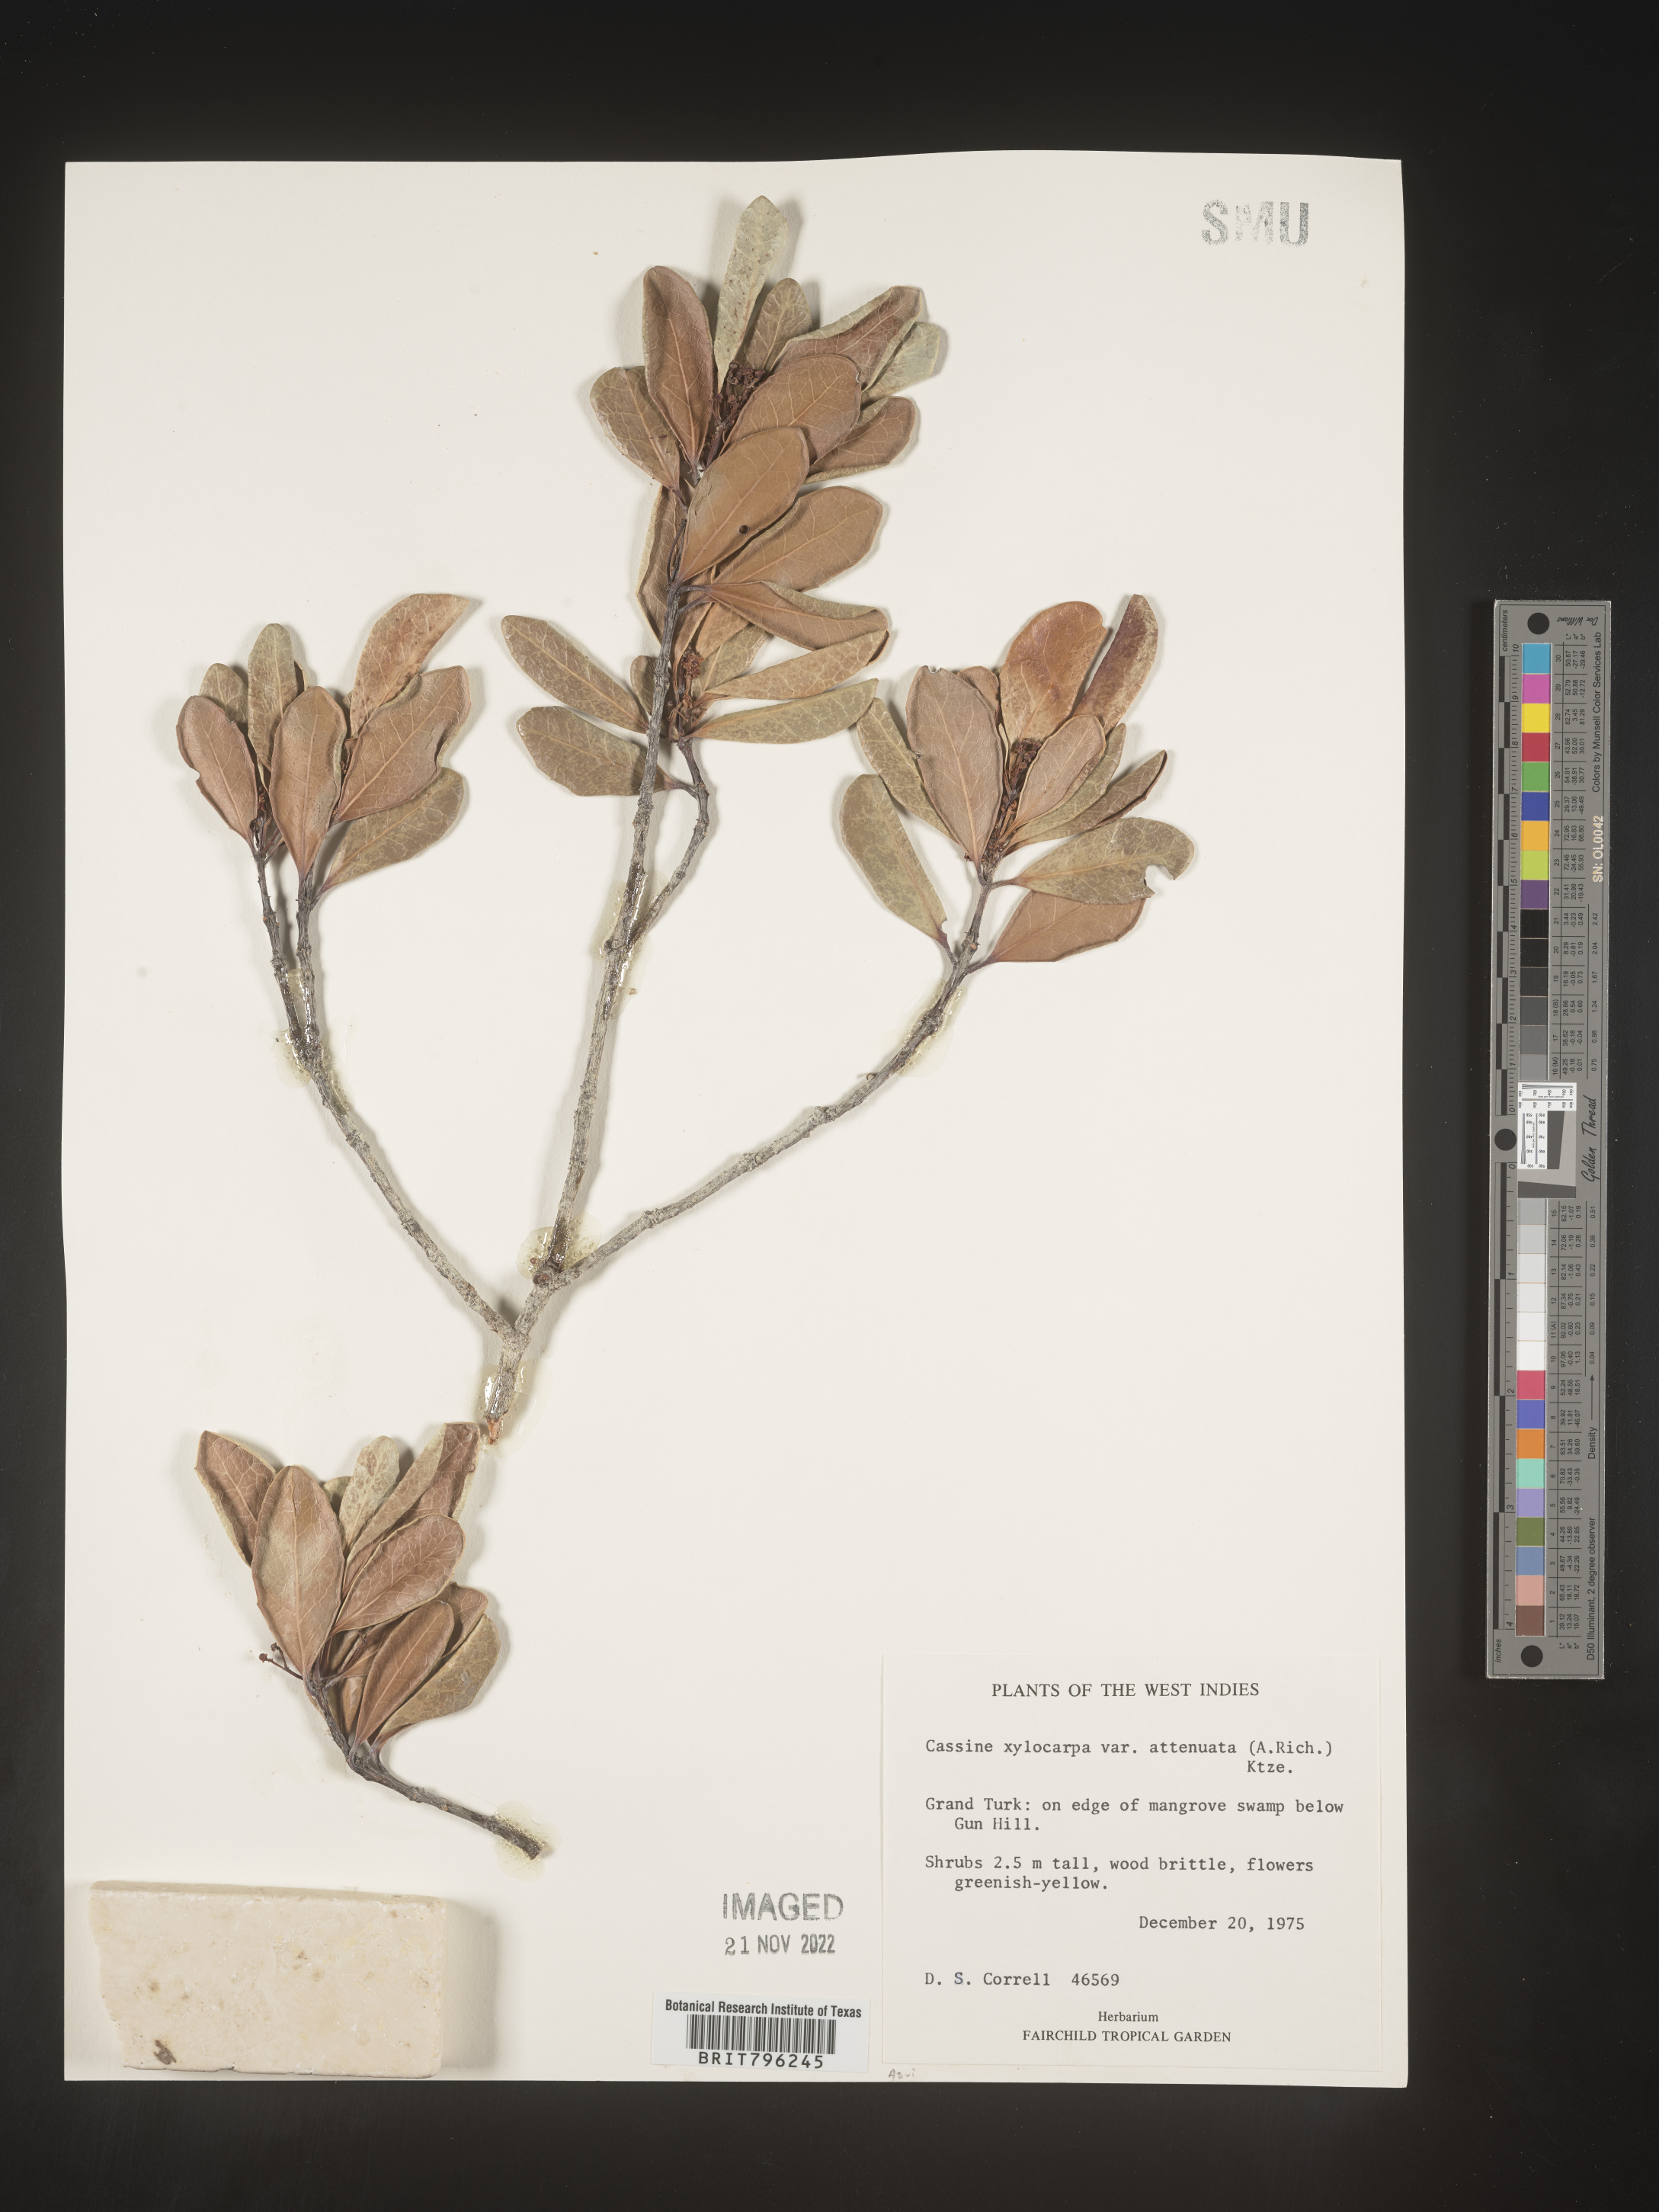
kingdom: Plantae
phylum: Tracheophyta
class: Magnoliopsida
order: Celastrales
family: Celastraceae
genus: Elaeodendron
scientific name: Elaeodendron
